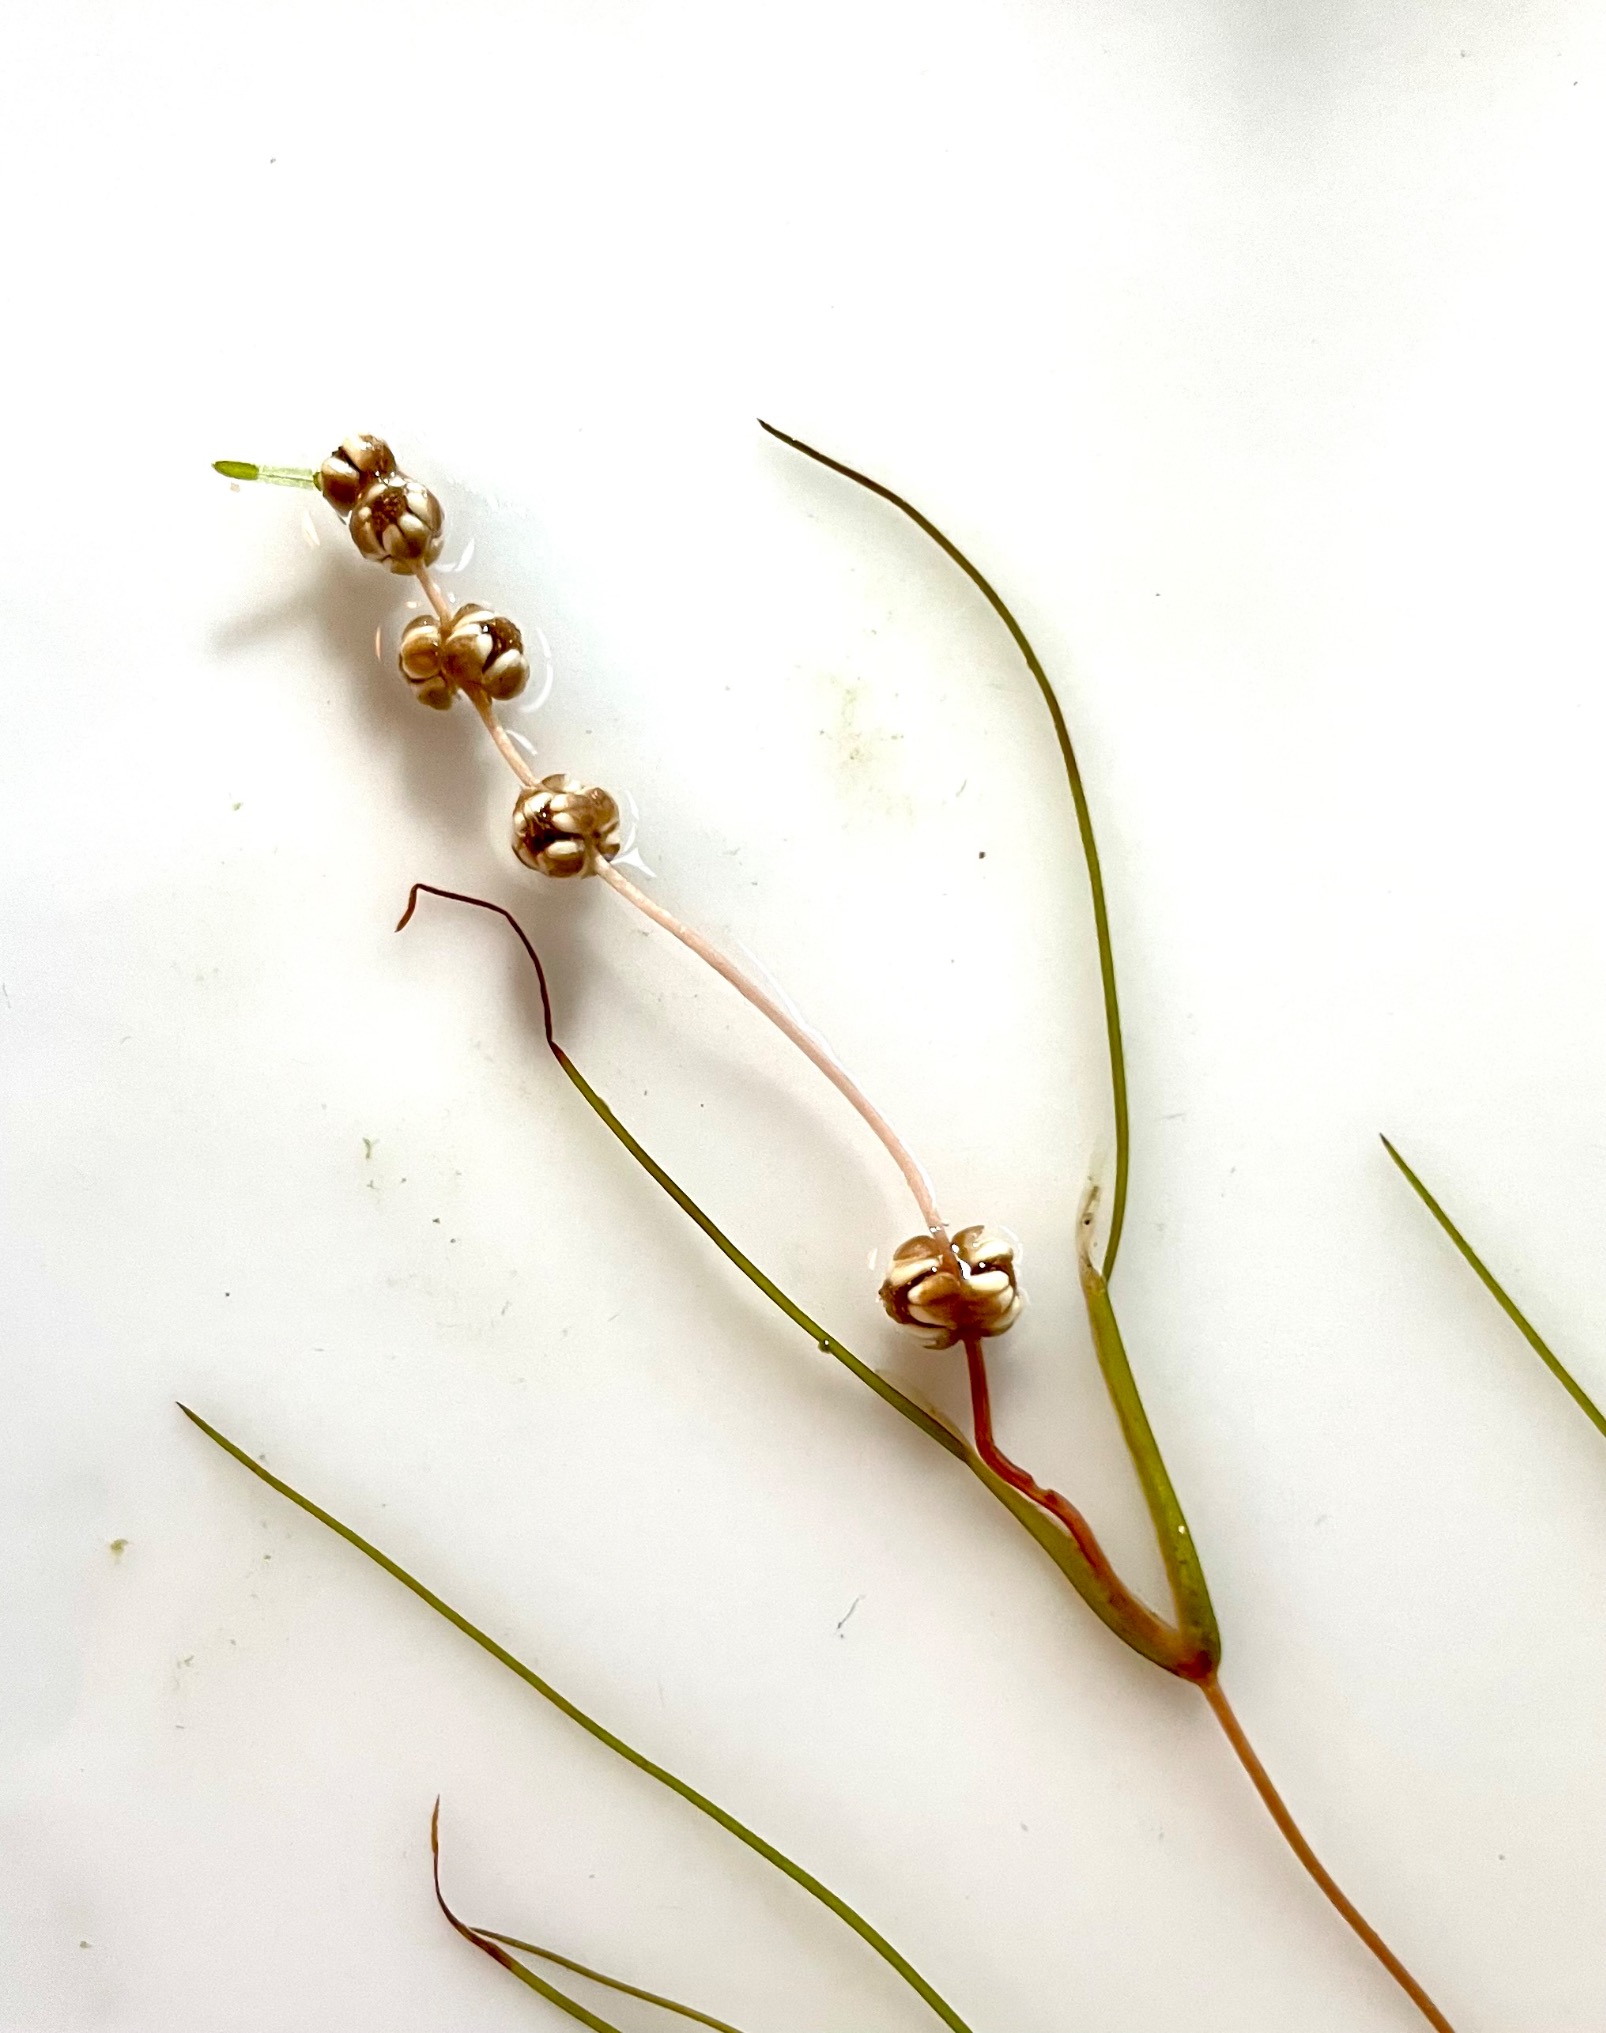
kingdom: Plantae
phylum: Tracheophyta
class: Liliopsida
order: Alismatales
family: Potamogetonaceae
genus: Stuckenia
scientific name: Stuckenia pectinata
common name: Børstebladet vandaks
